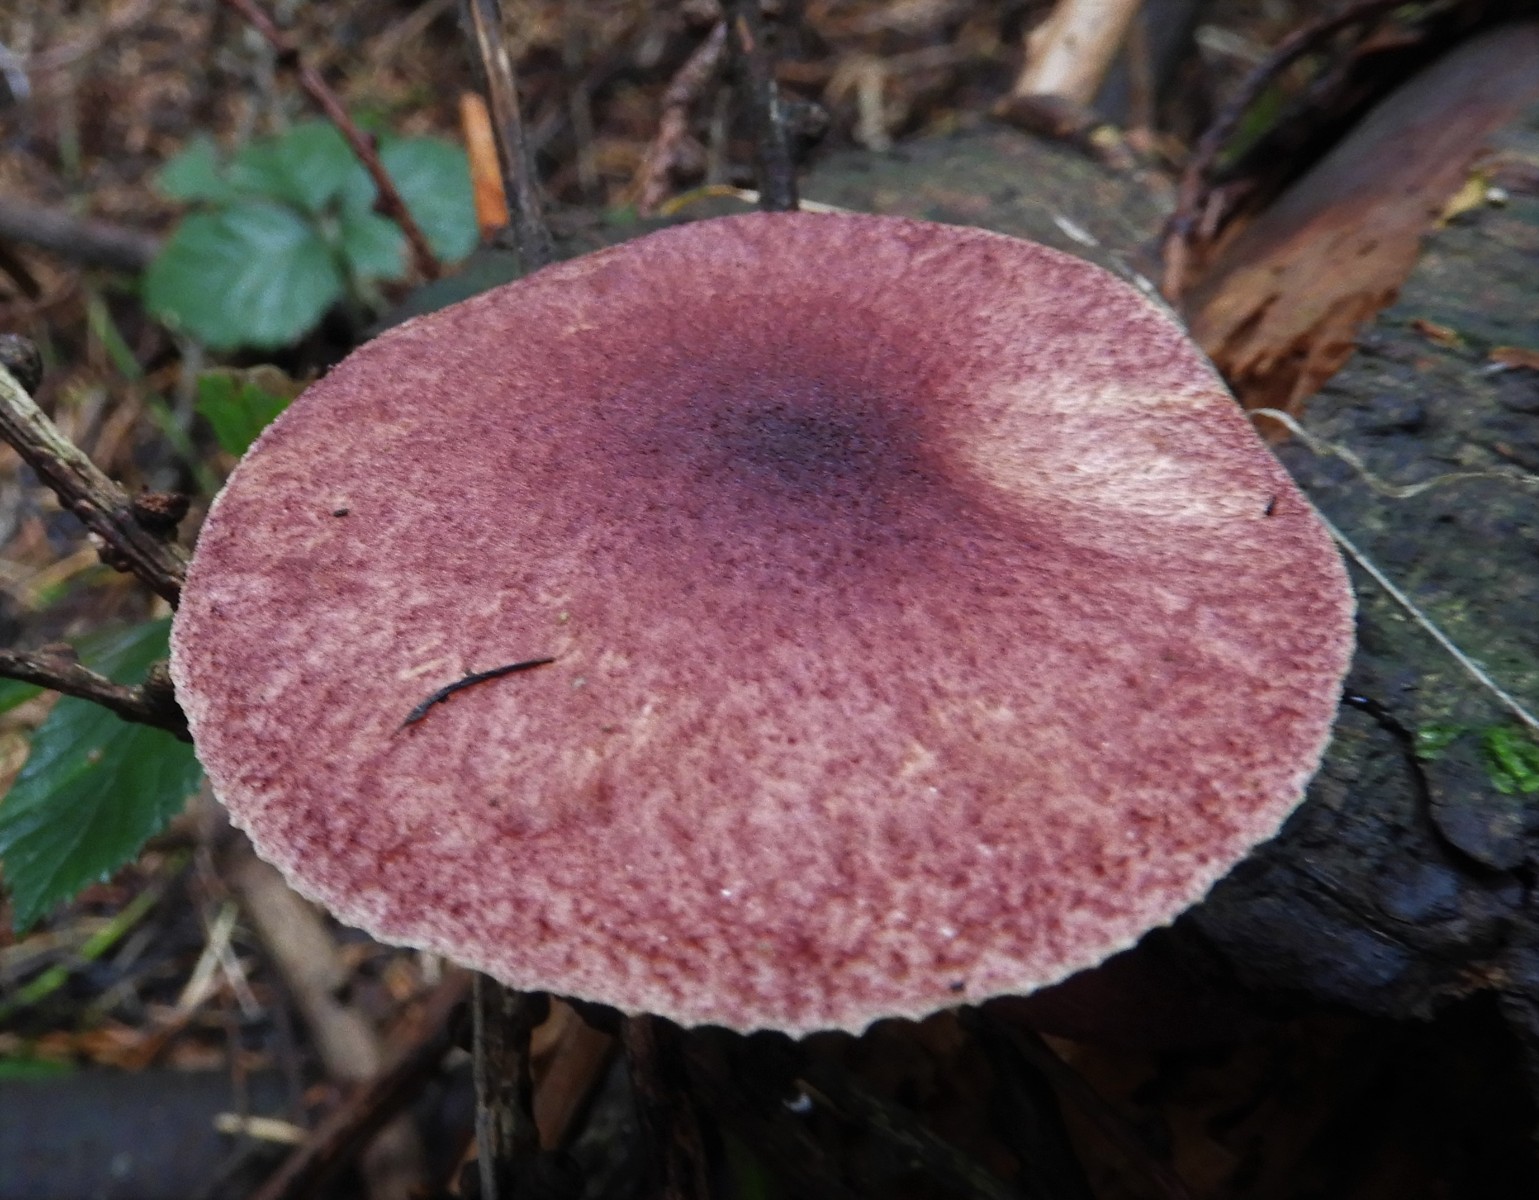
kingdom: Fungi
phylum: Basidiomycota
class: Agaricomycetes
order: Agaricales
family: Tricholomataceae
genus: Tricholomopsis
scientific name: Tricholomopsis rutilans
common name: purpur-væbnerhat
